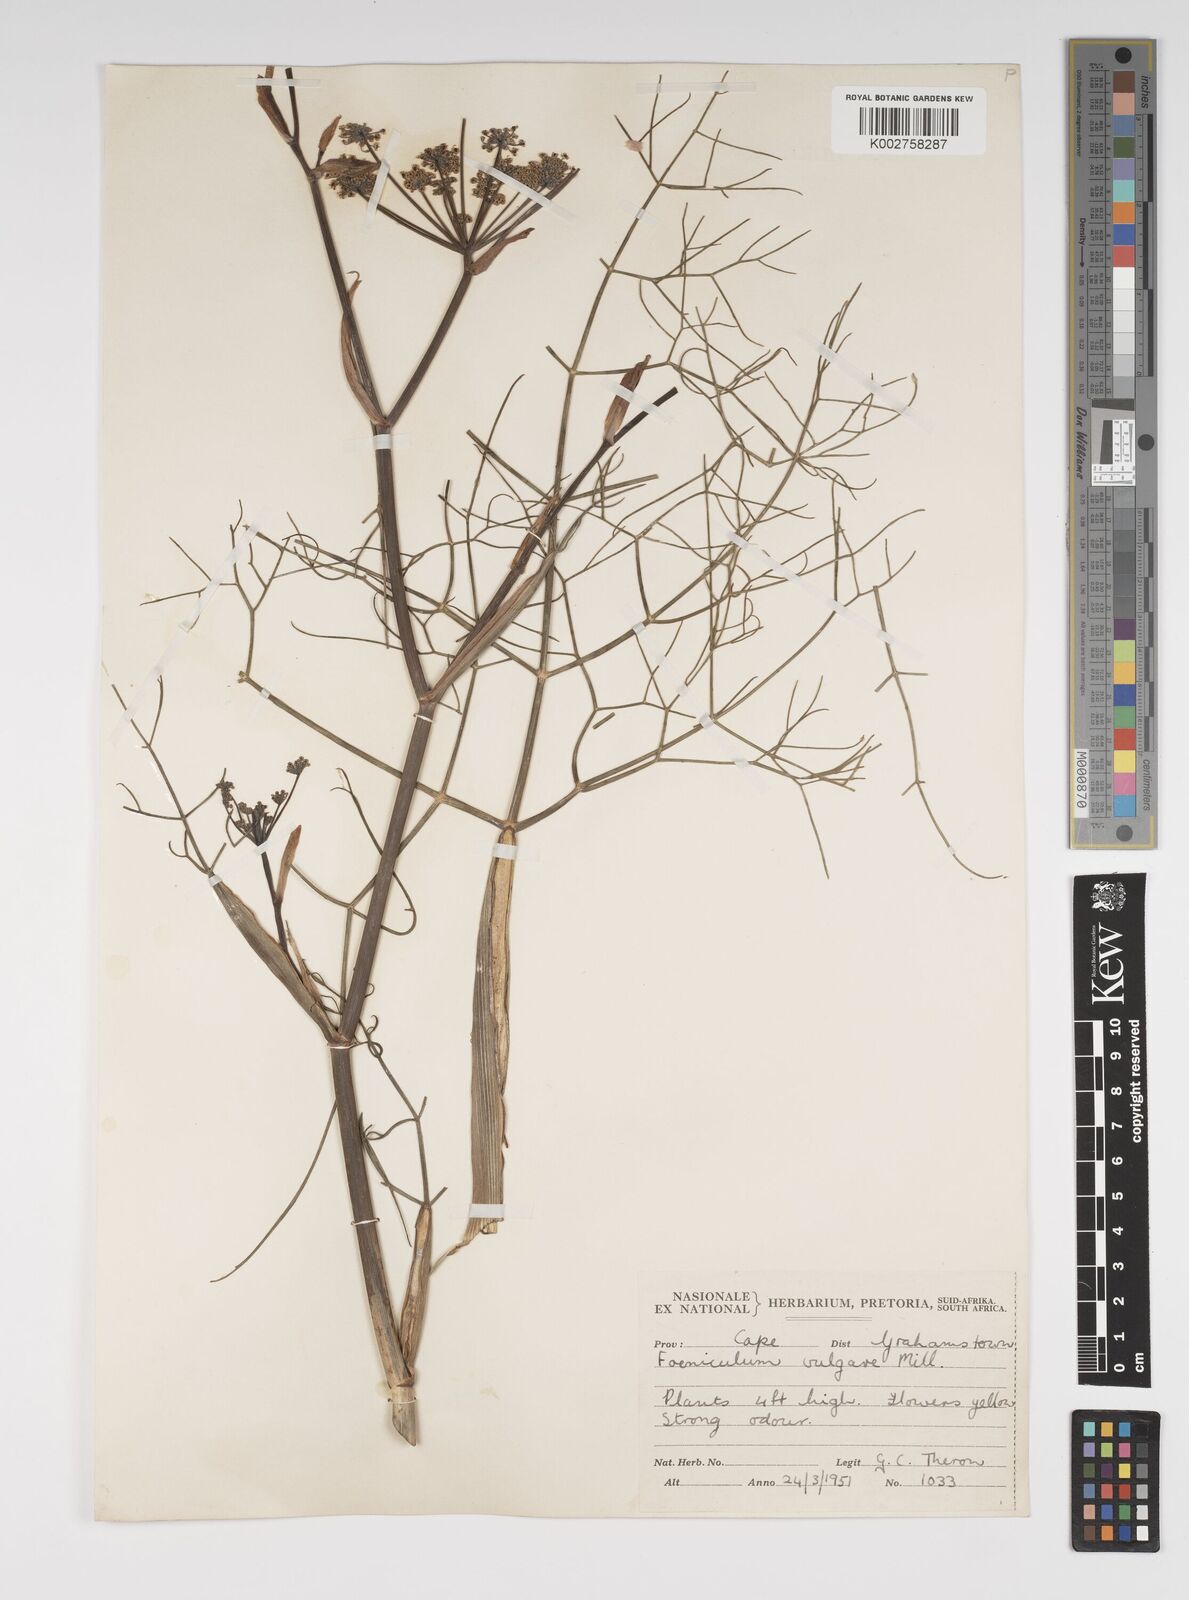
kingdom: Plantae
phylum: Tracheophyta
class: Magnoliopsida
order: Apiales
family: Apiaceae
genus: Foeniculum
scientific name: Foeniculum vulgare
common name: Fennel
